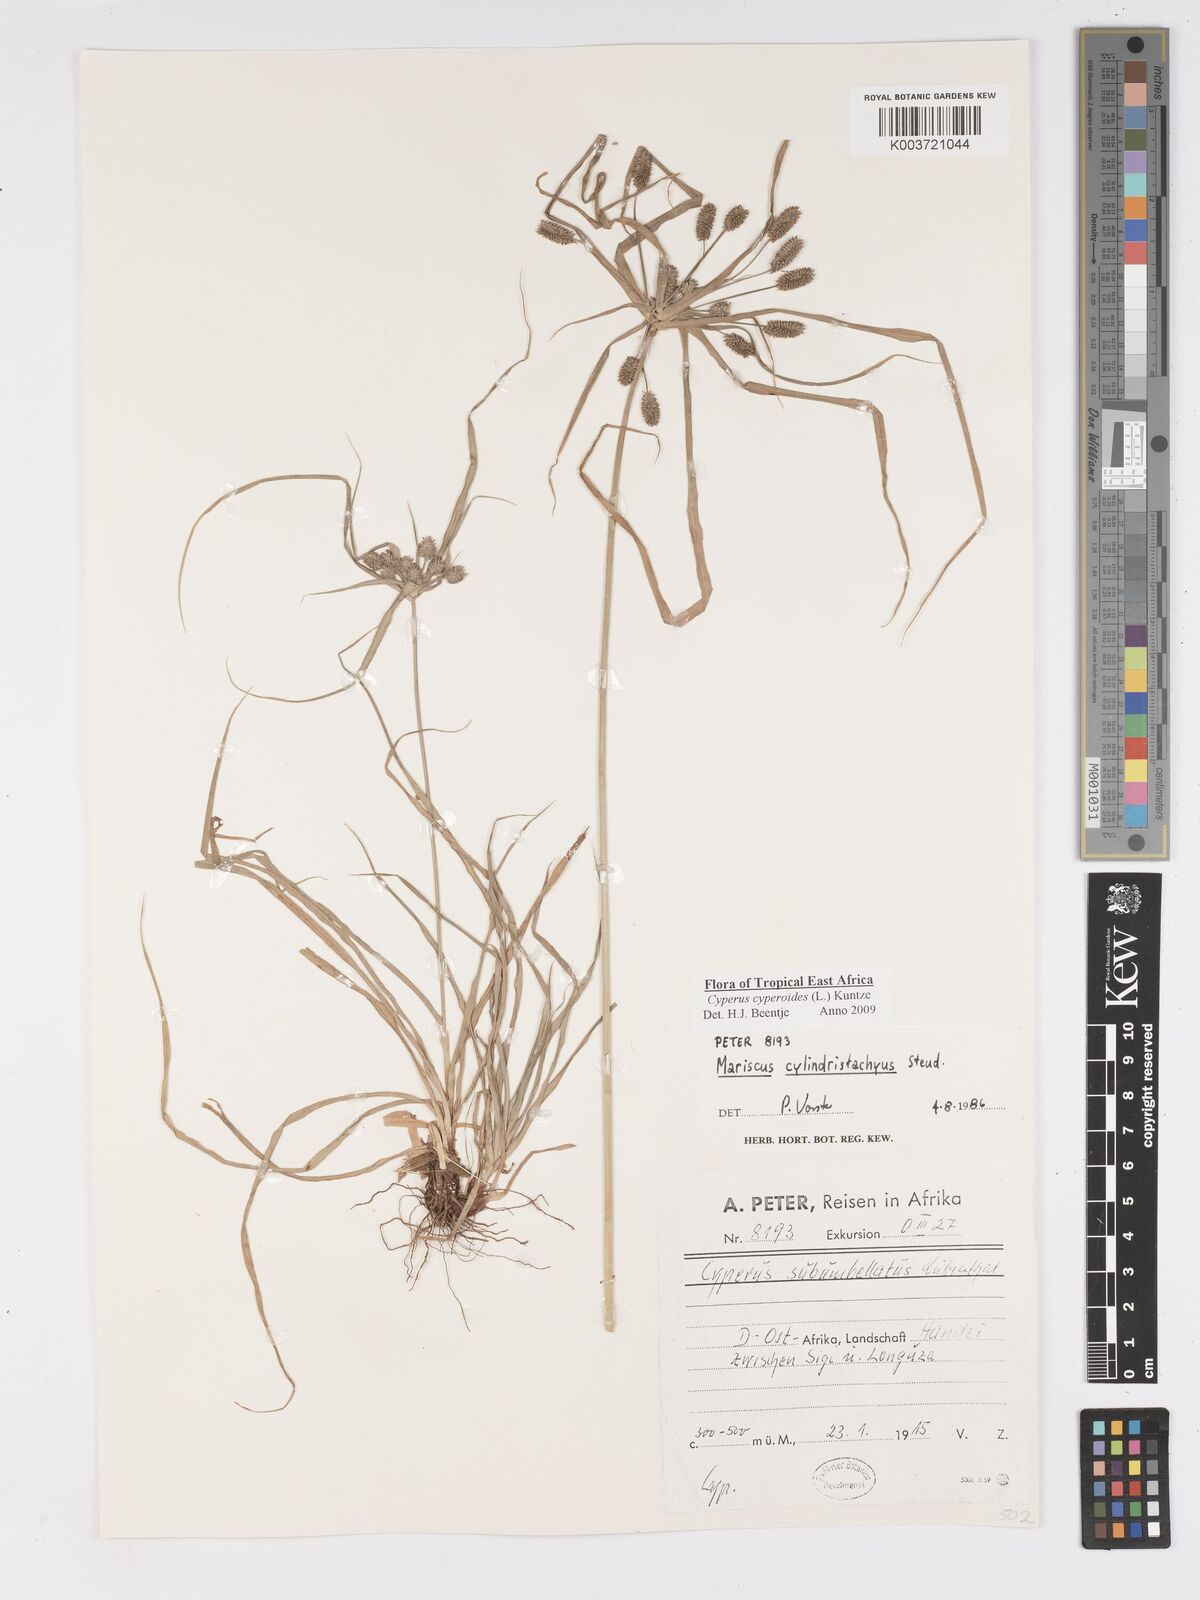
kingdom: Plantae
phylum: Tracheophyta
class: Liliopsida
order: Poales
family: Cyperaceae
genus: Cyperus
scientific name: Cyperus cyperoides
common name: Pacific island flat sedge
